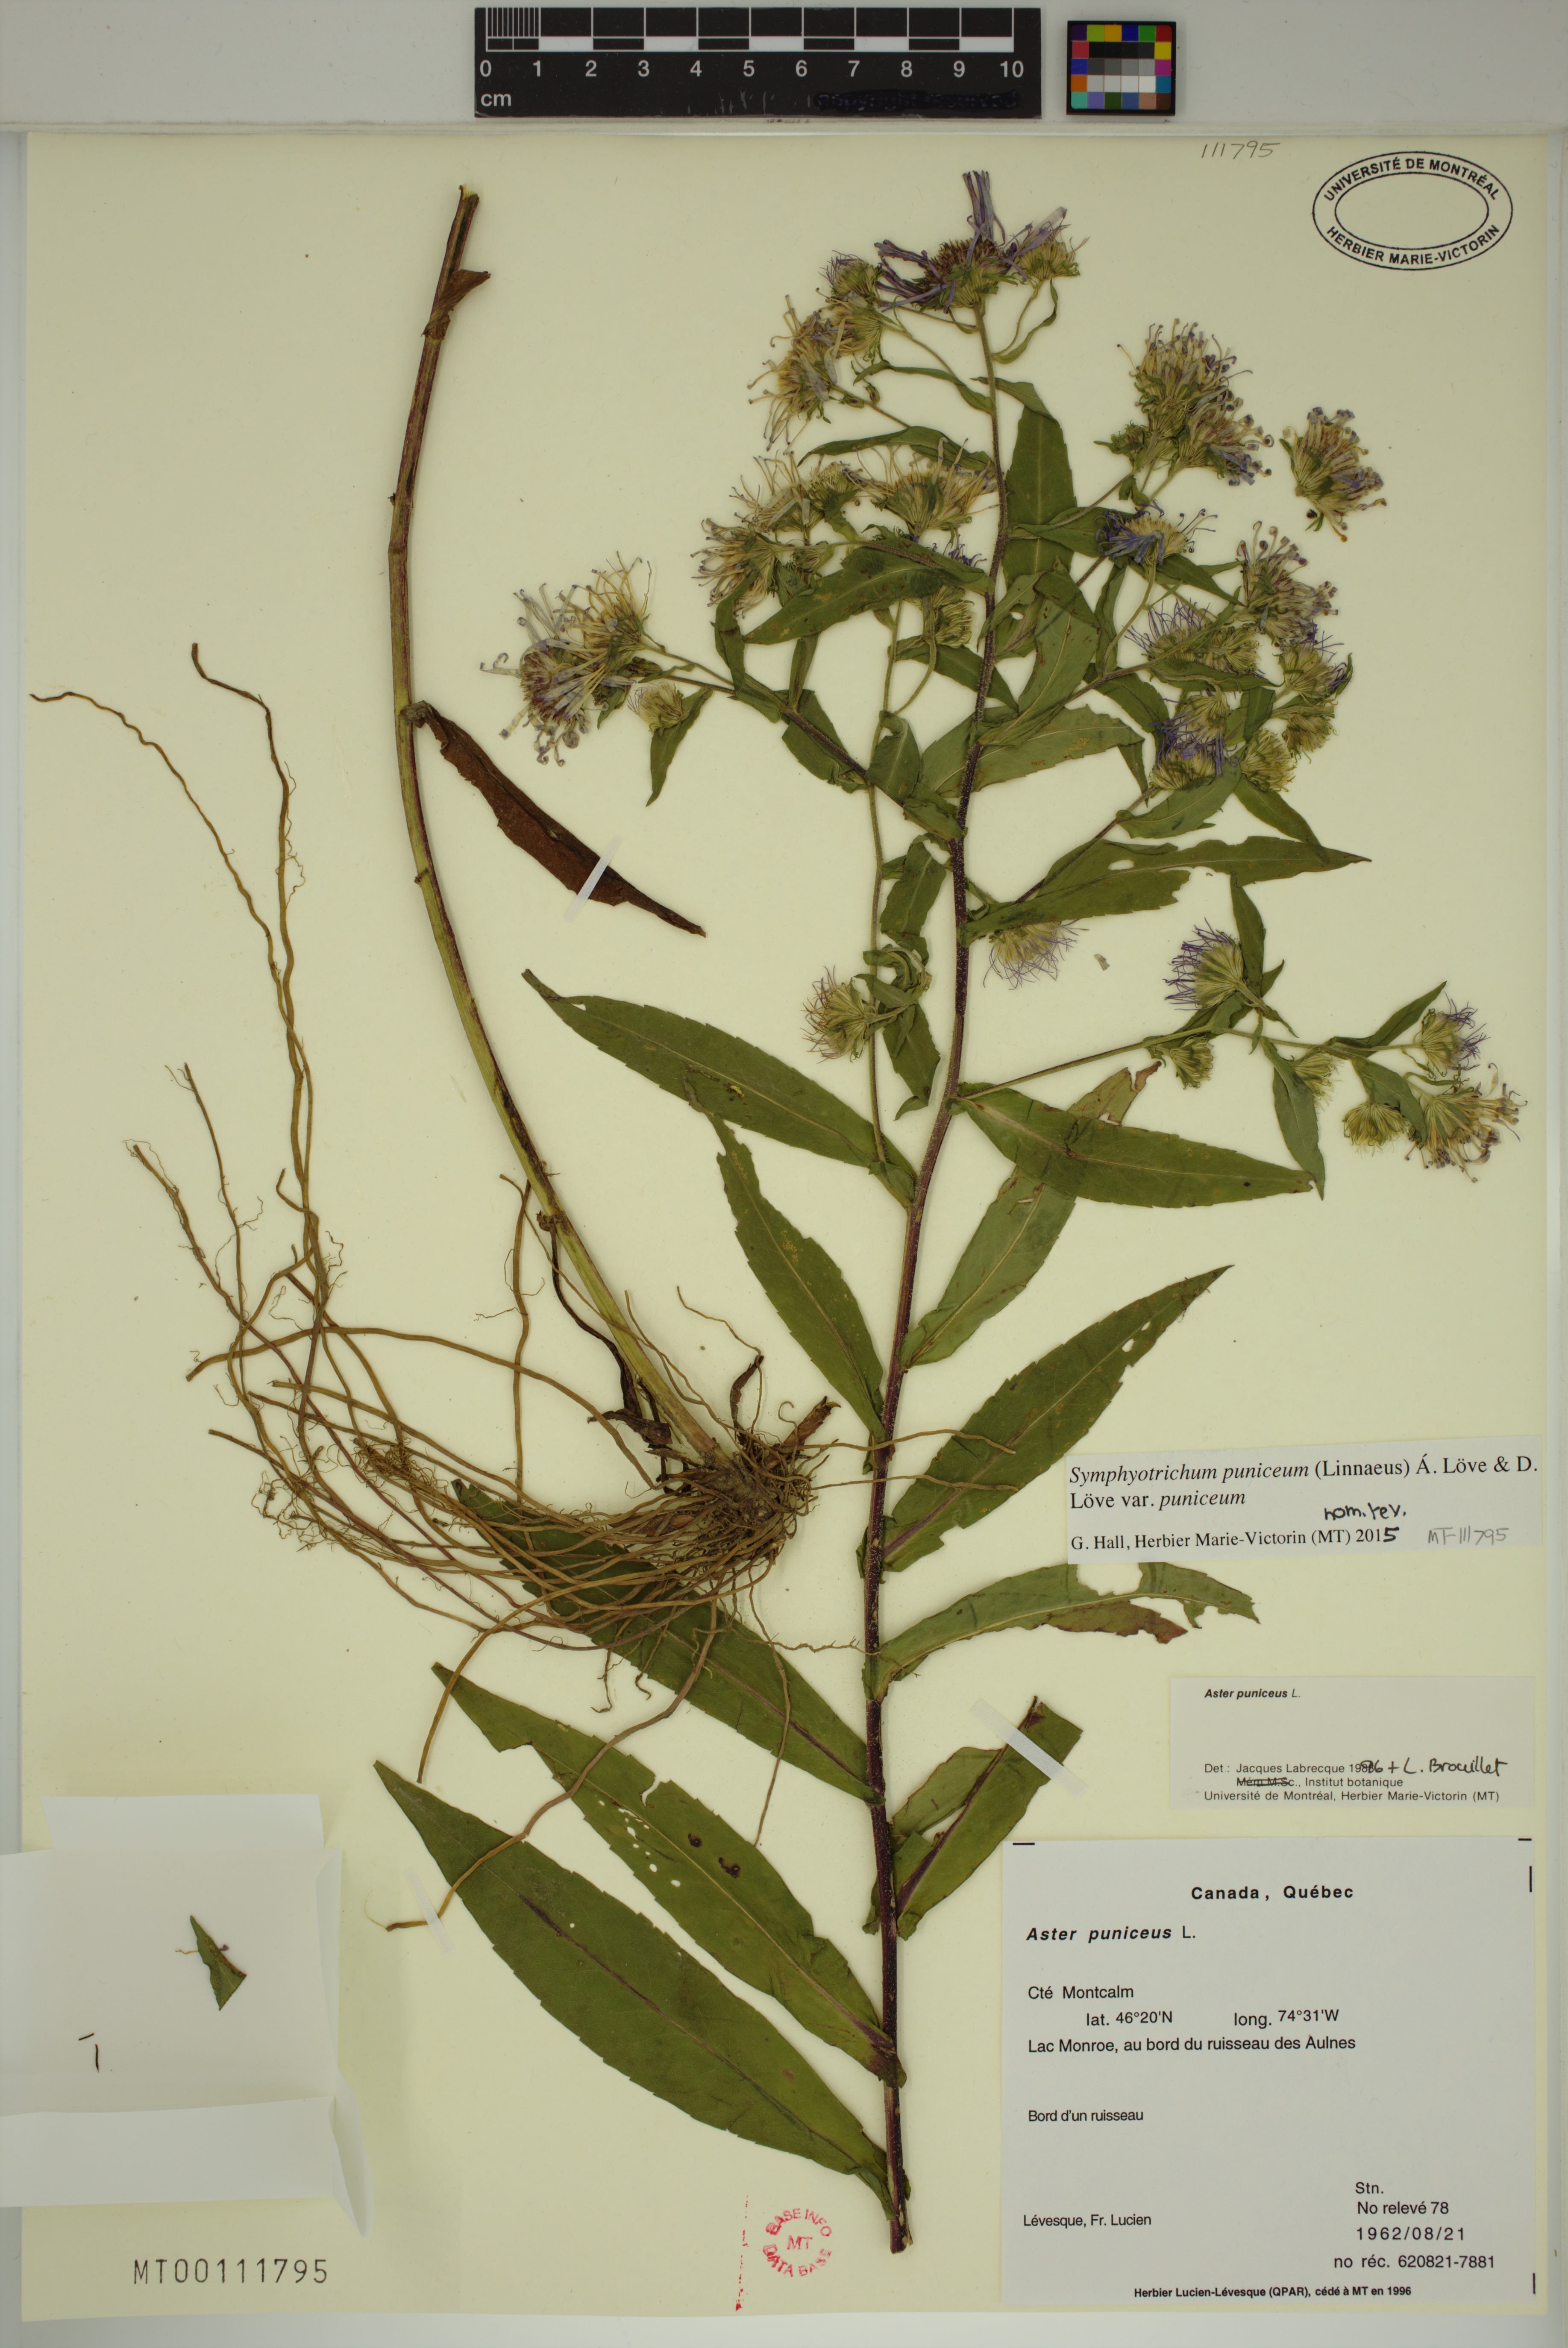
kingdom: Plantae
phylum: Tracheophyta
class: Magnoliopsida
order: Asterales
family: Asteraceae
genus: Symphyotrichum
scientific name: Symphyotrichum puniceum
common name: Bog aster
